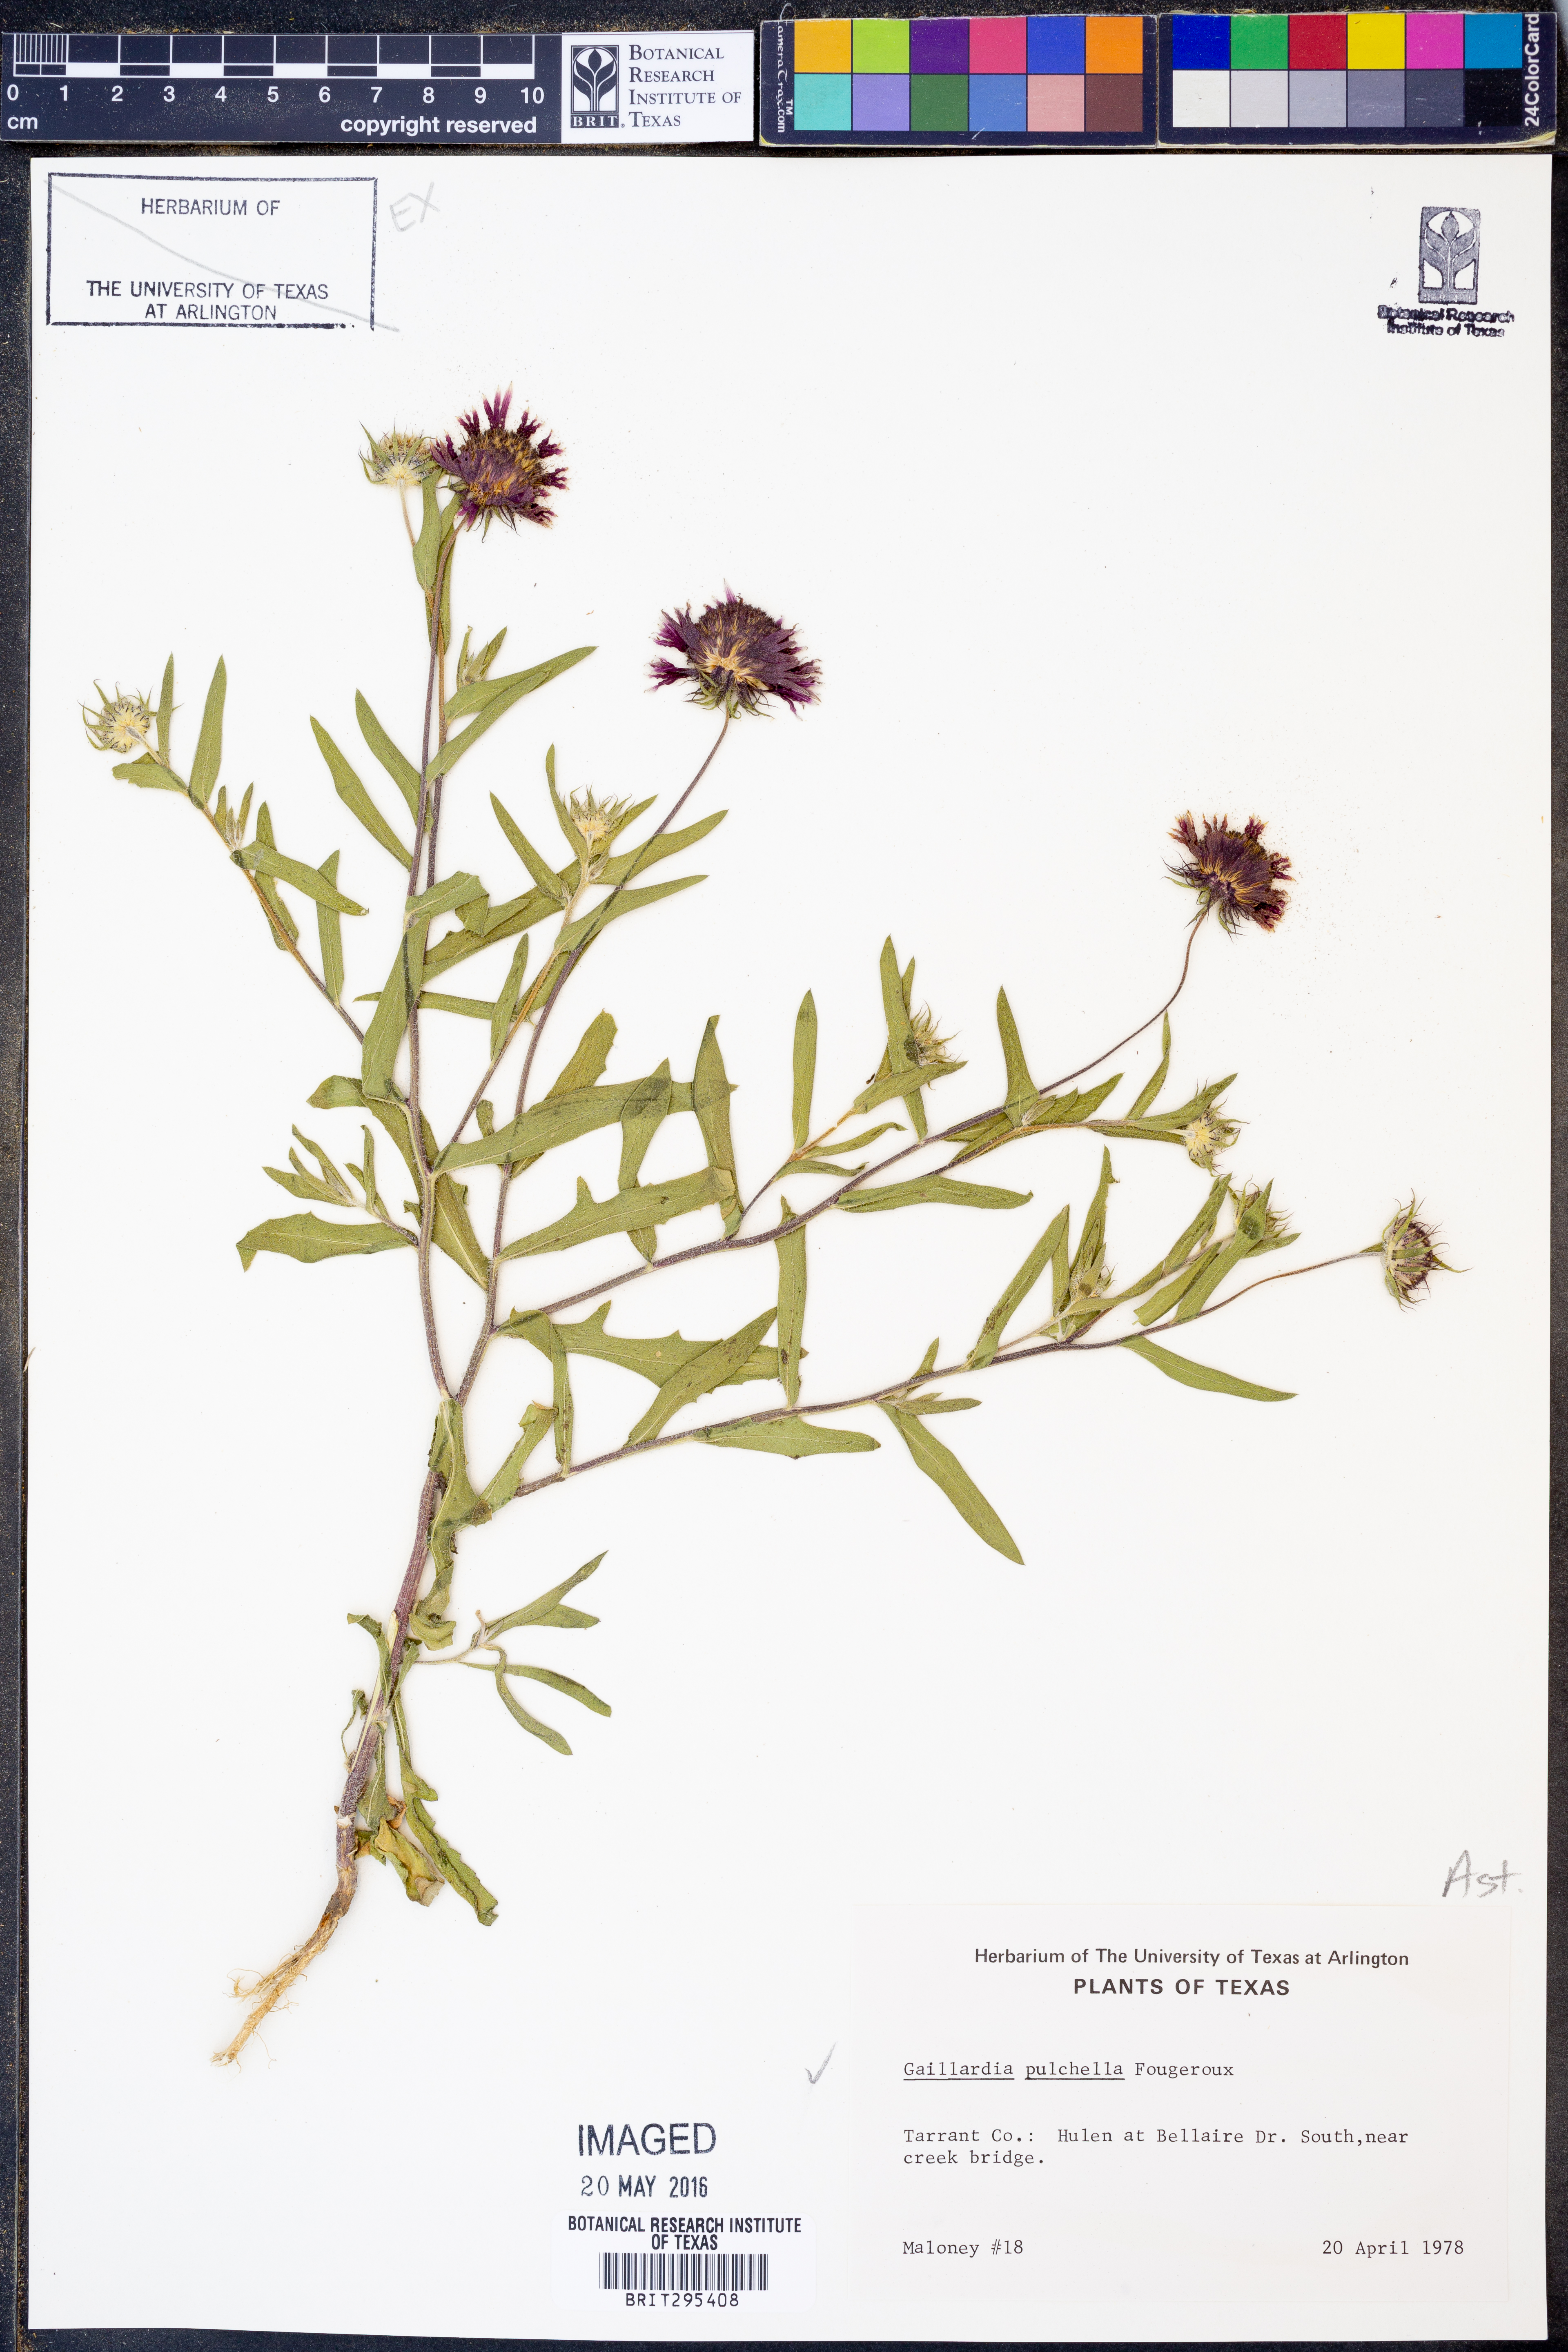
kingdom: Plantae
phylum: Tracheophyta
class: Magnoliopsida
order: Asterales
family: Asteraceae
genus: Gaillardia
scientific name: Gaillardia pulchella
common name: Firewheel
